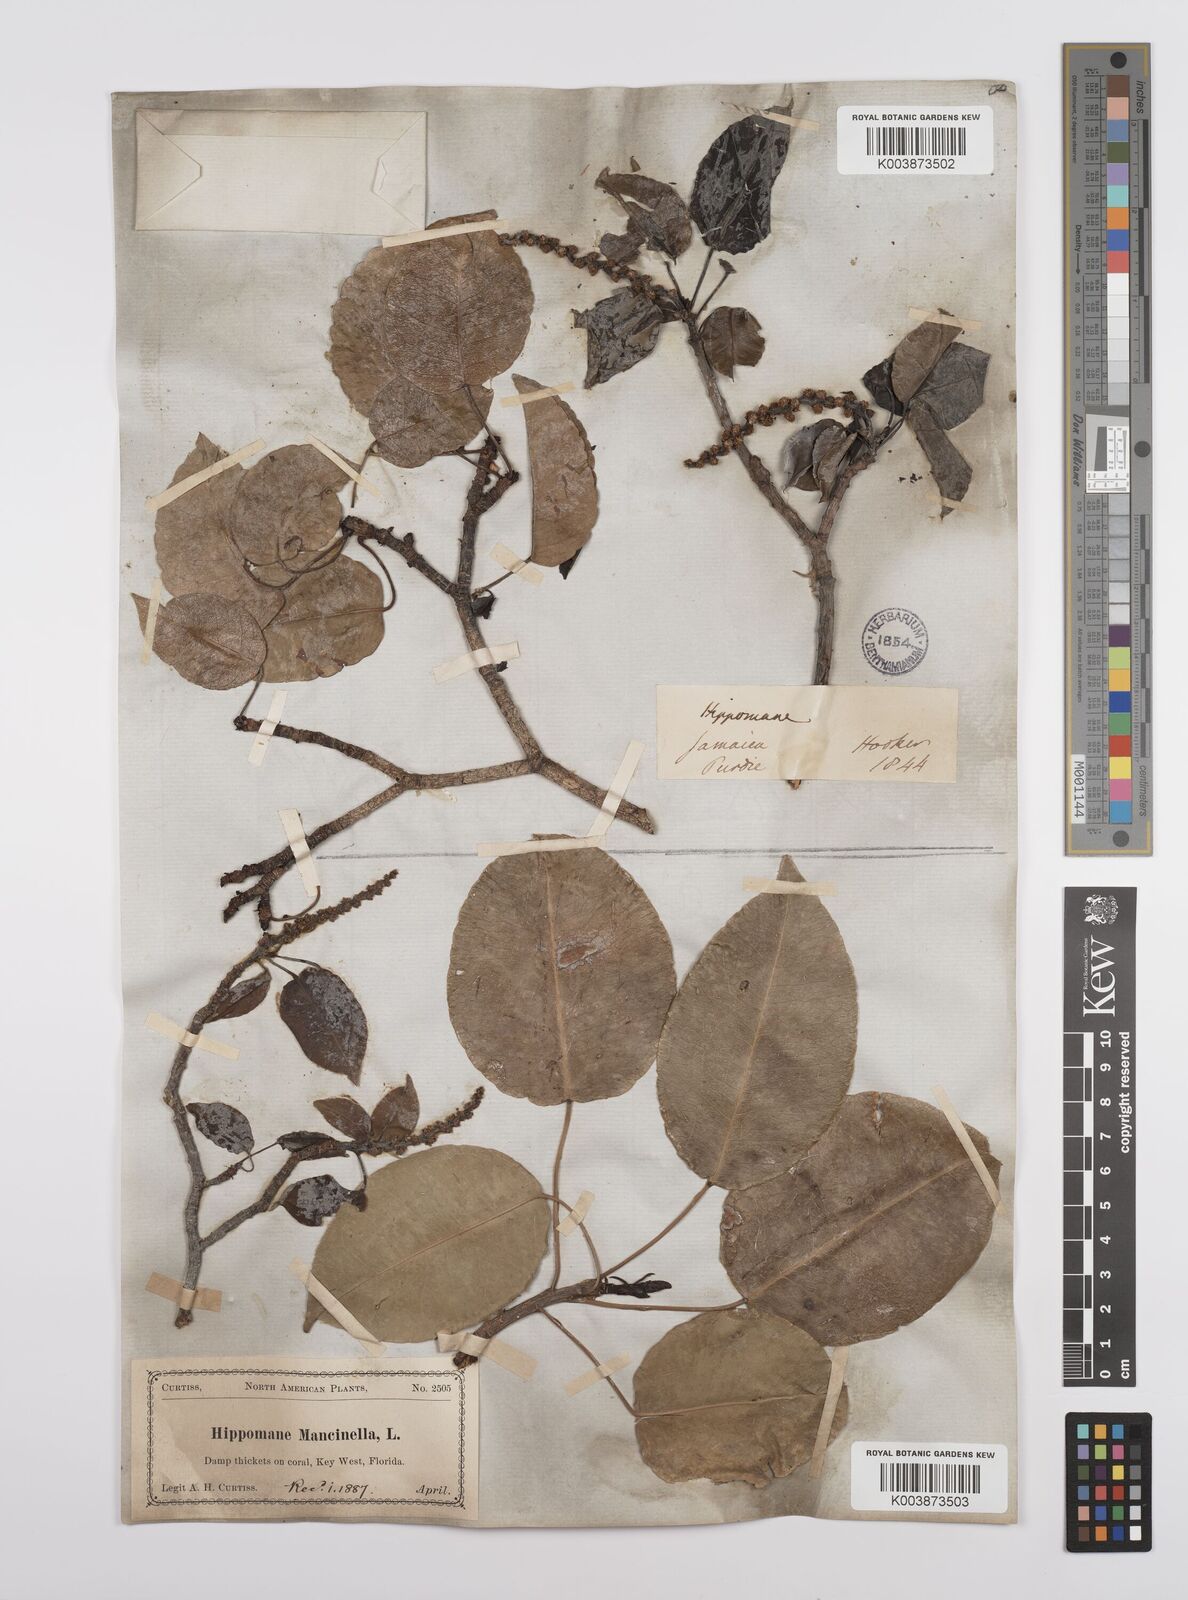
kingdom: Plantae
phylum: Tracheophyta
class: Magnoliopsida
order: Malpighiales
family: Euphorbiaceae
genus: Hippomane
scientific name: Hippomane mancinella
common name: Manchineel
